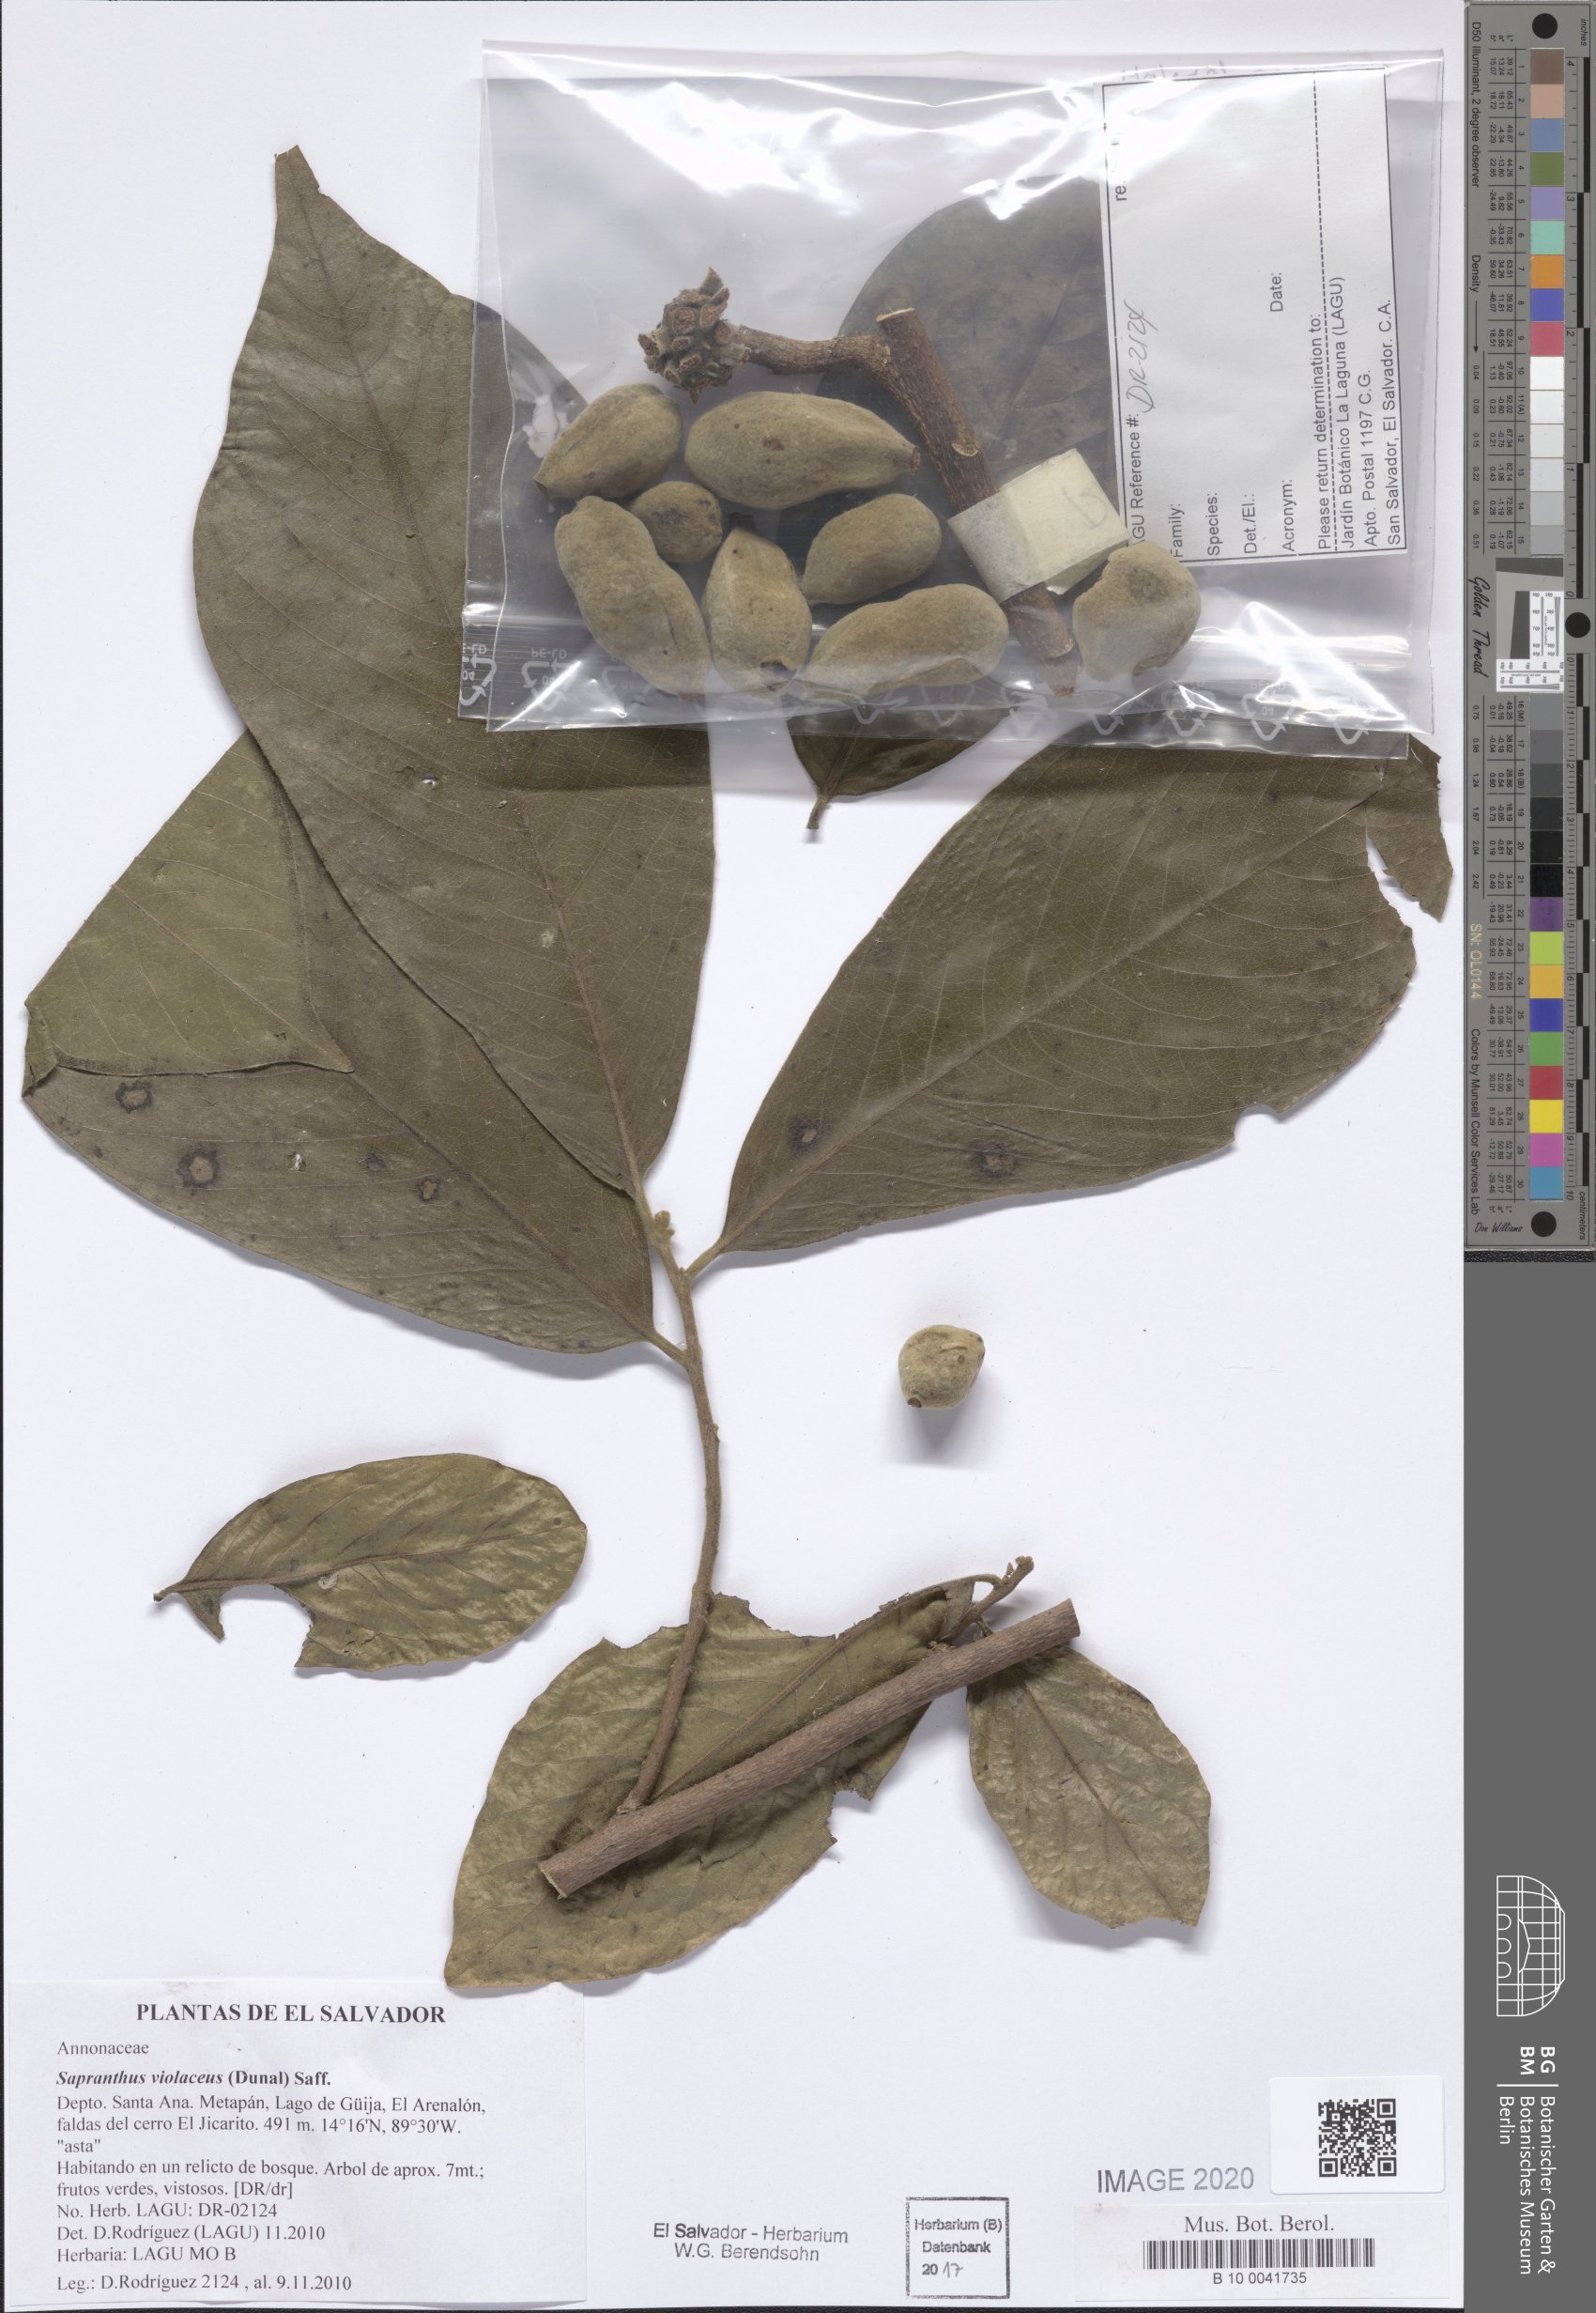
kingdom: Plantae
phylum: Tracheophyta
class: Magnoliopsida
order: Magnoliales
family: Annonaceae
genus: Sapranthus
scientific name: Sapranthus violaceus
